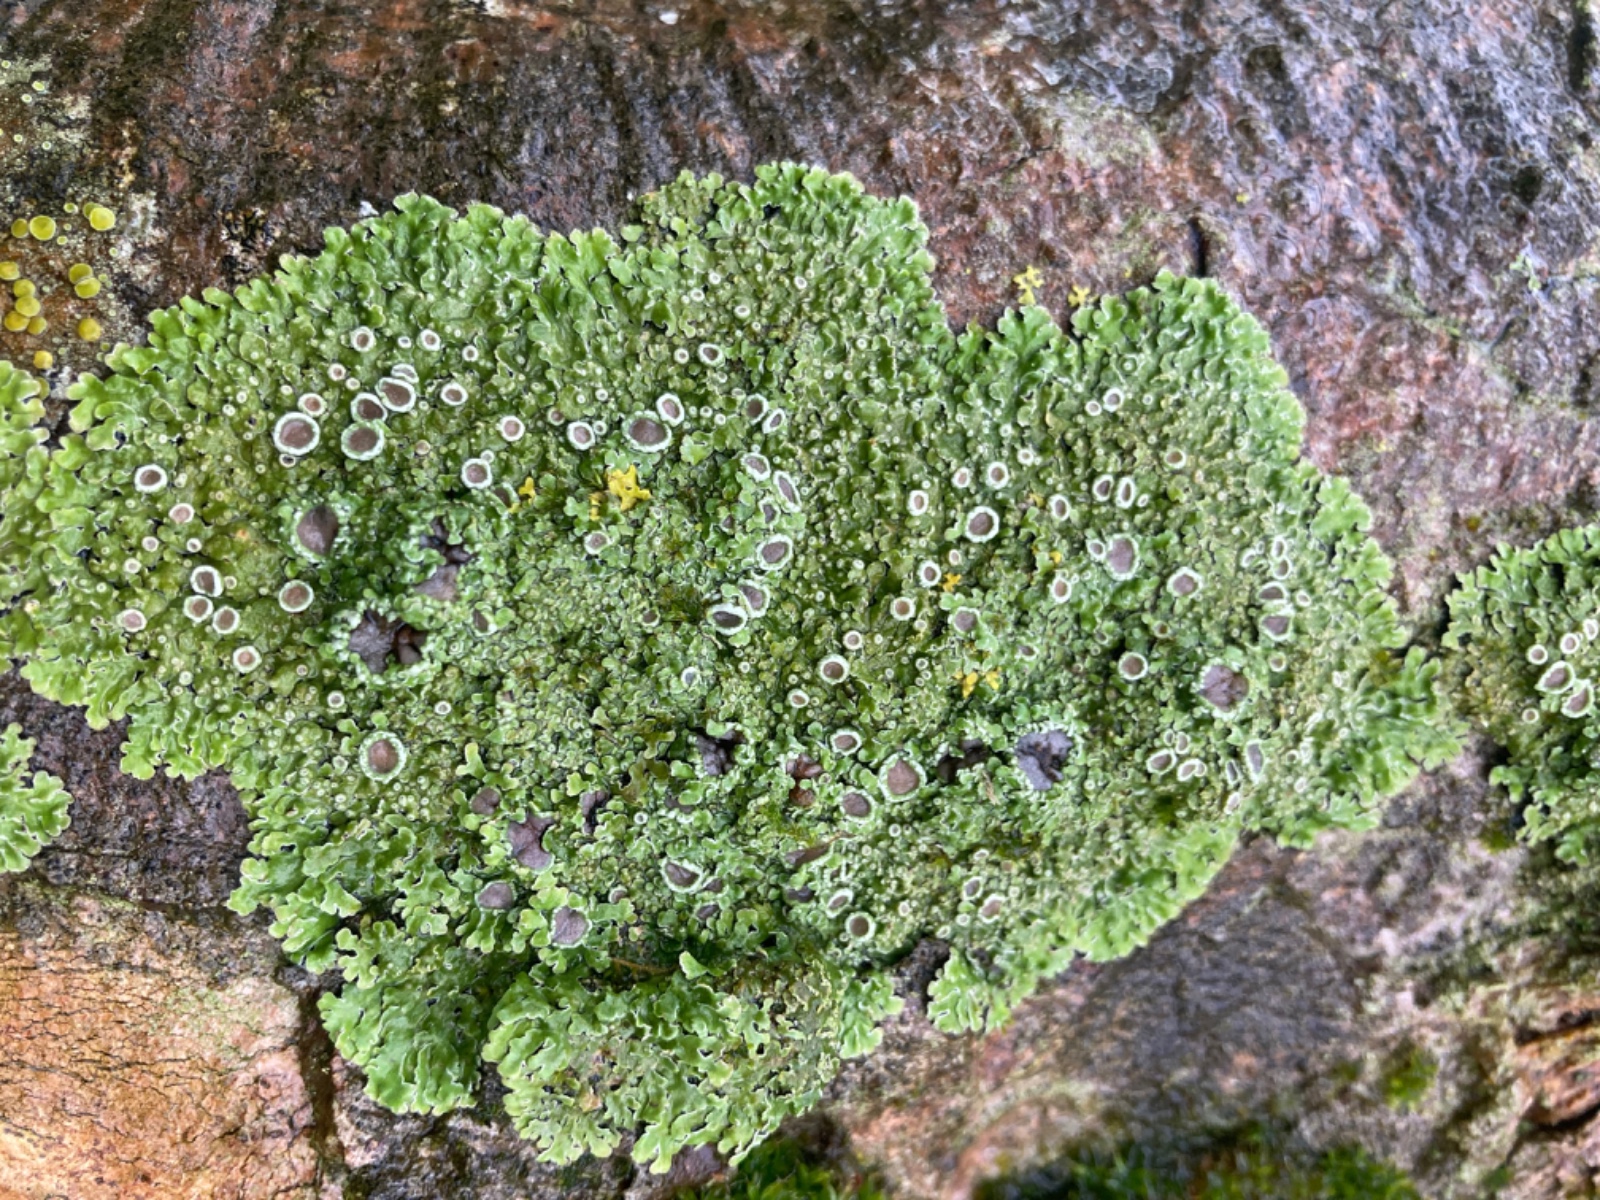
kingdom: Fungi
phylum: Ascomycota
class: Lecanoromycetes
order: Caliciales
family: Physciaceae
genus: Physconia
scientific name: Physconia distorta
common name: pudret dugrosetlav
